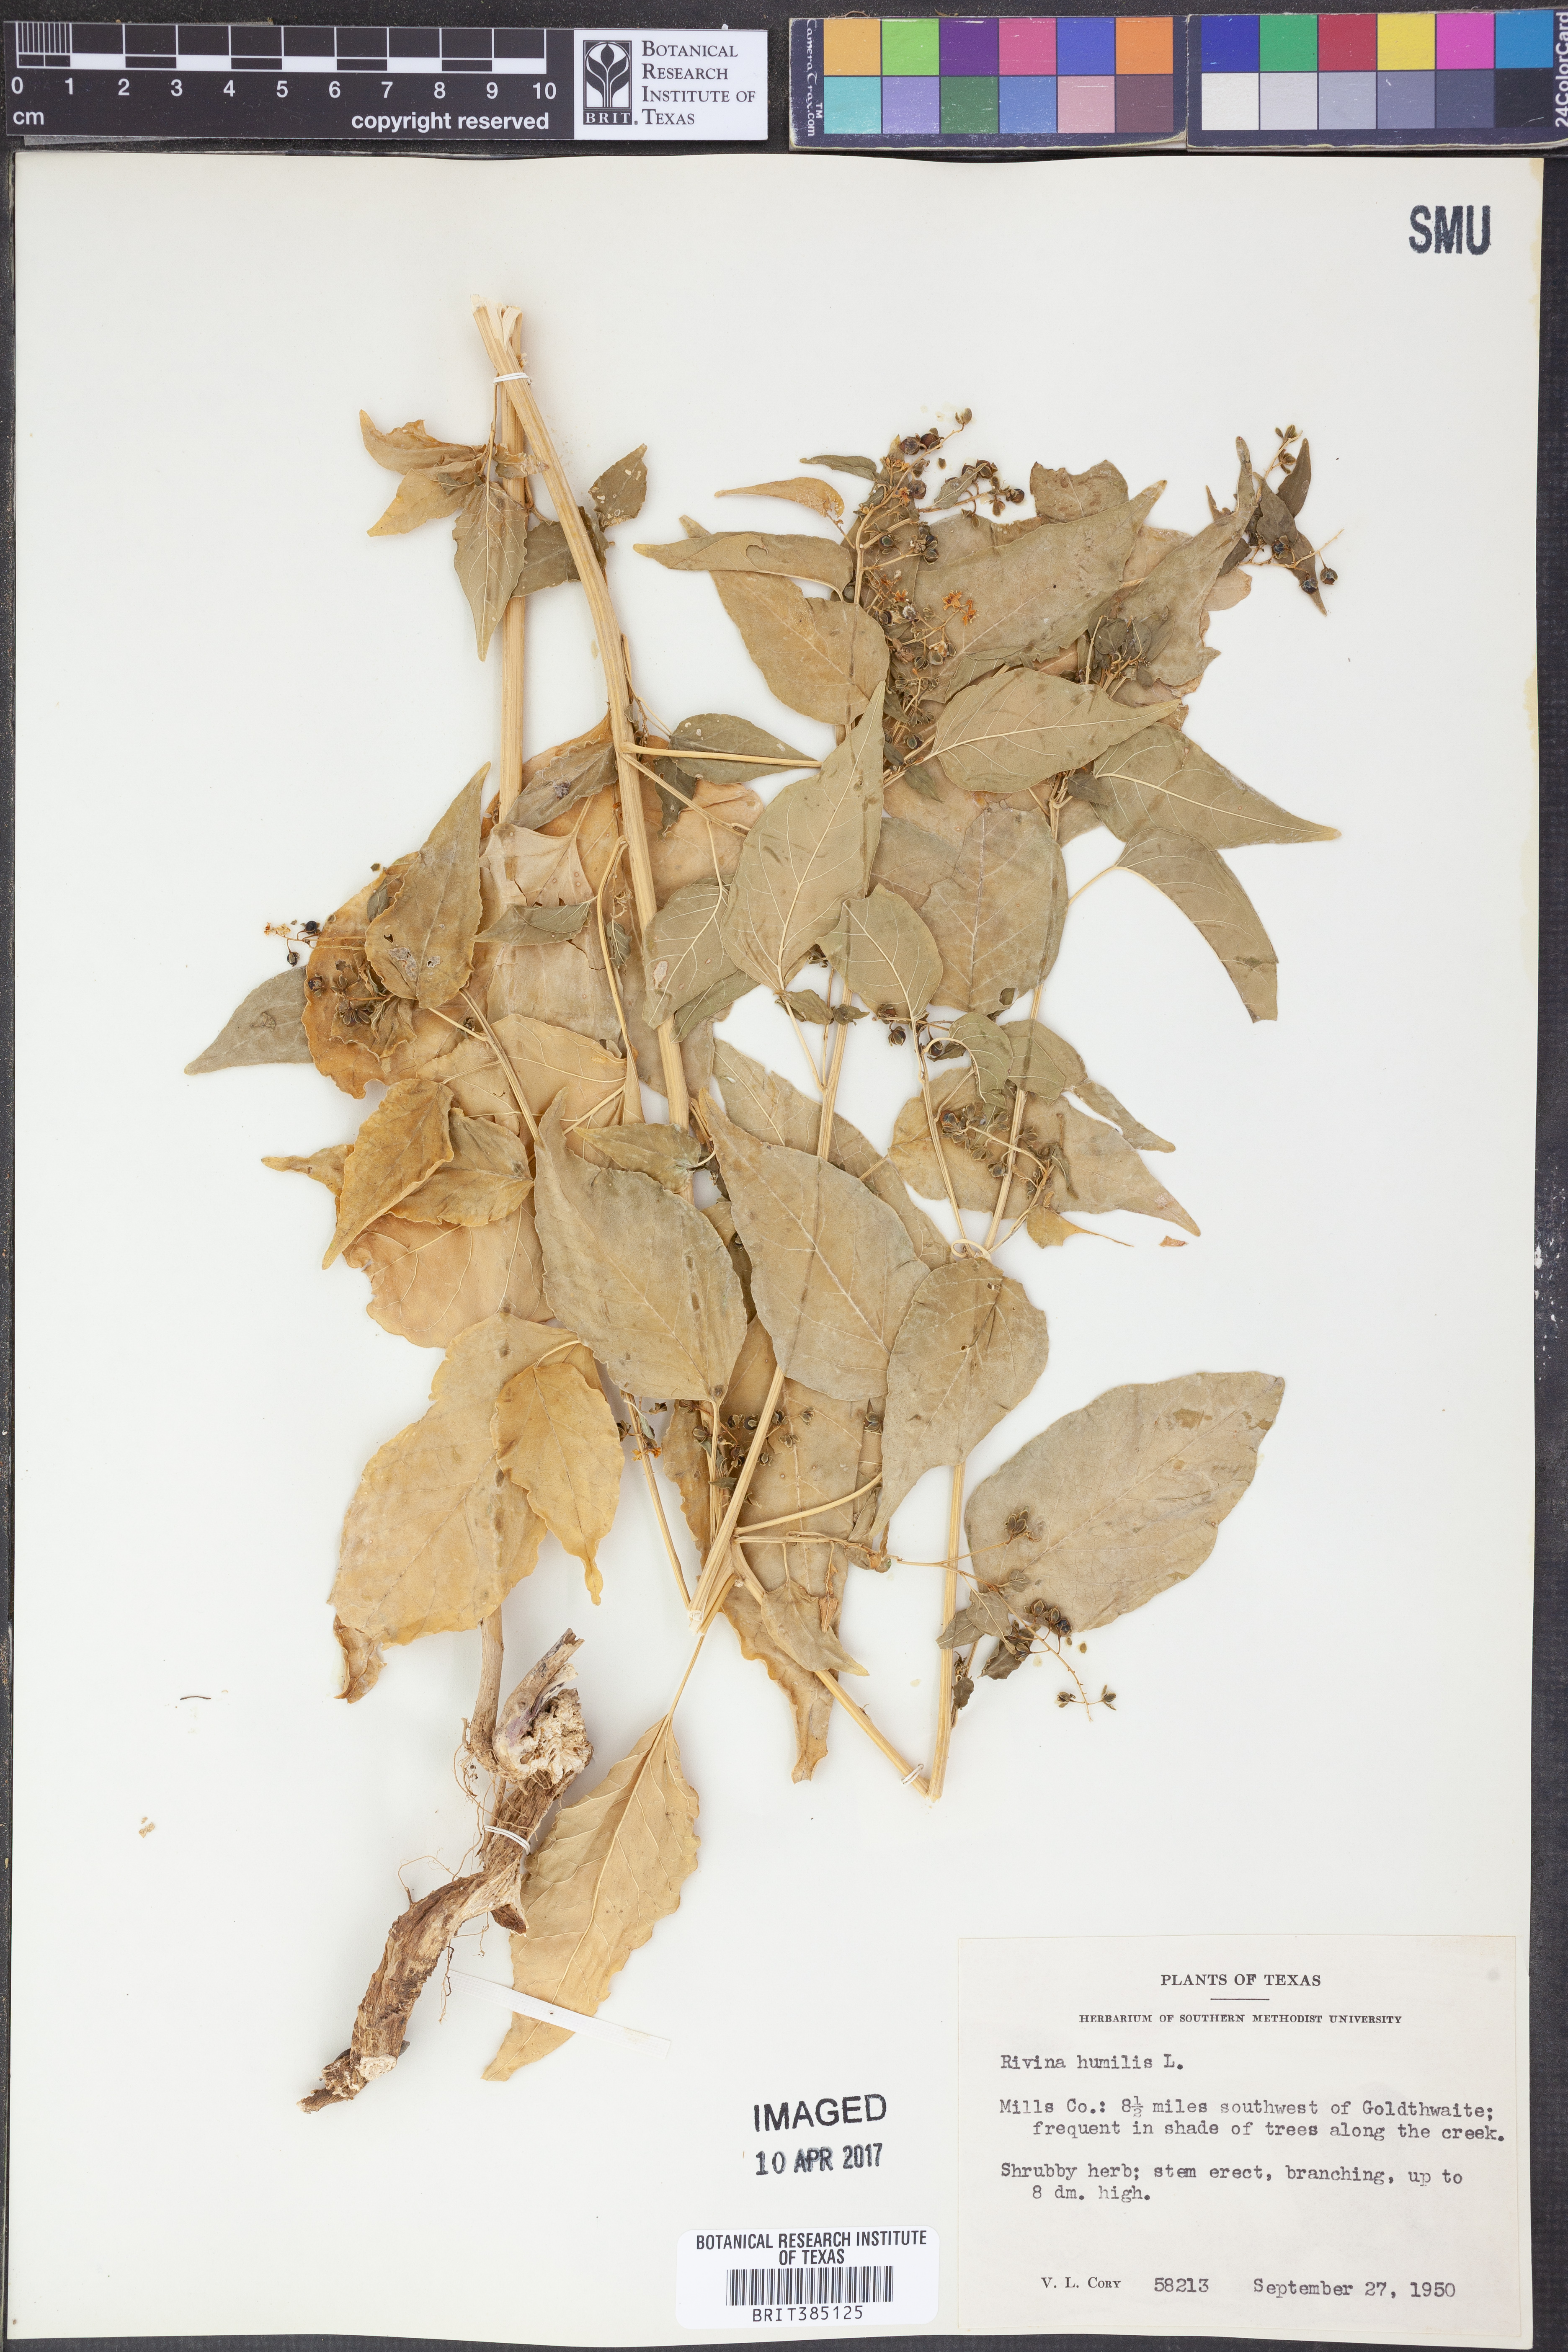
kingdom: Plantae
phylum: Tracheophyta
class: Magnoliopsida
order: Caryophyllales
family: Phytolaccaceae
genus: Rivina
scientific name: Rivina humilis
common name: Rougeplant
